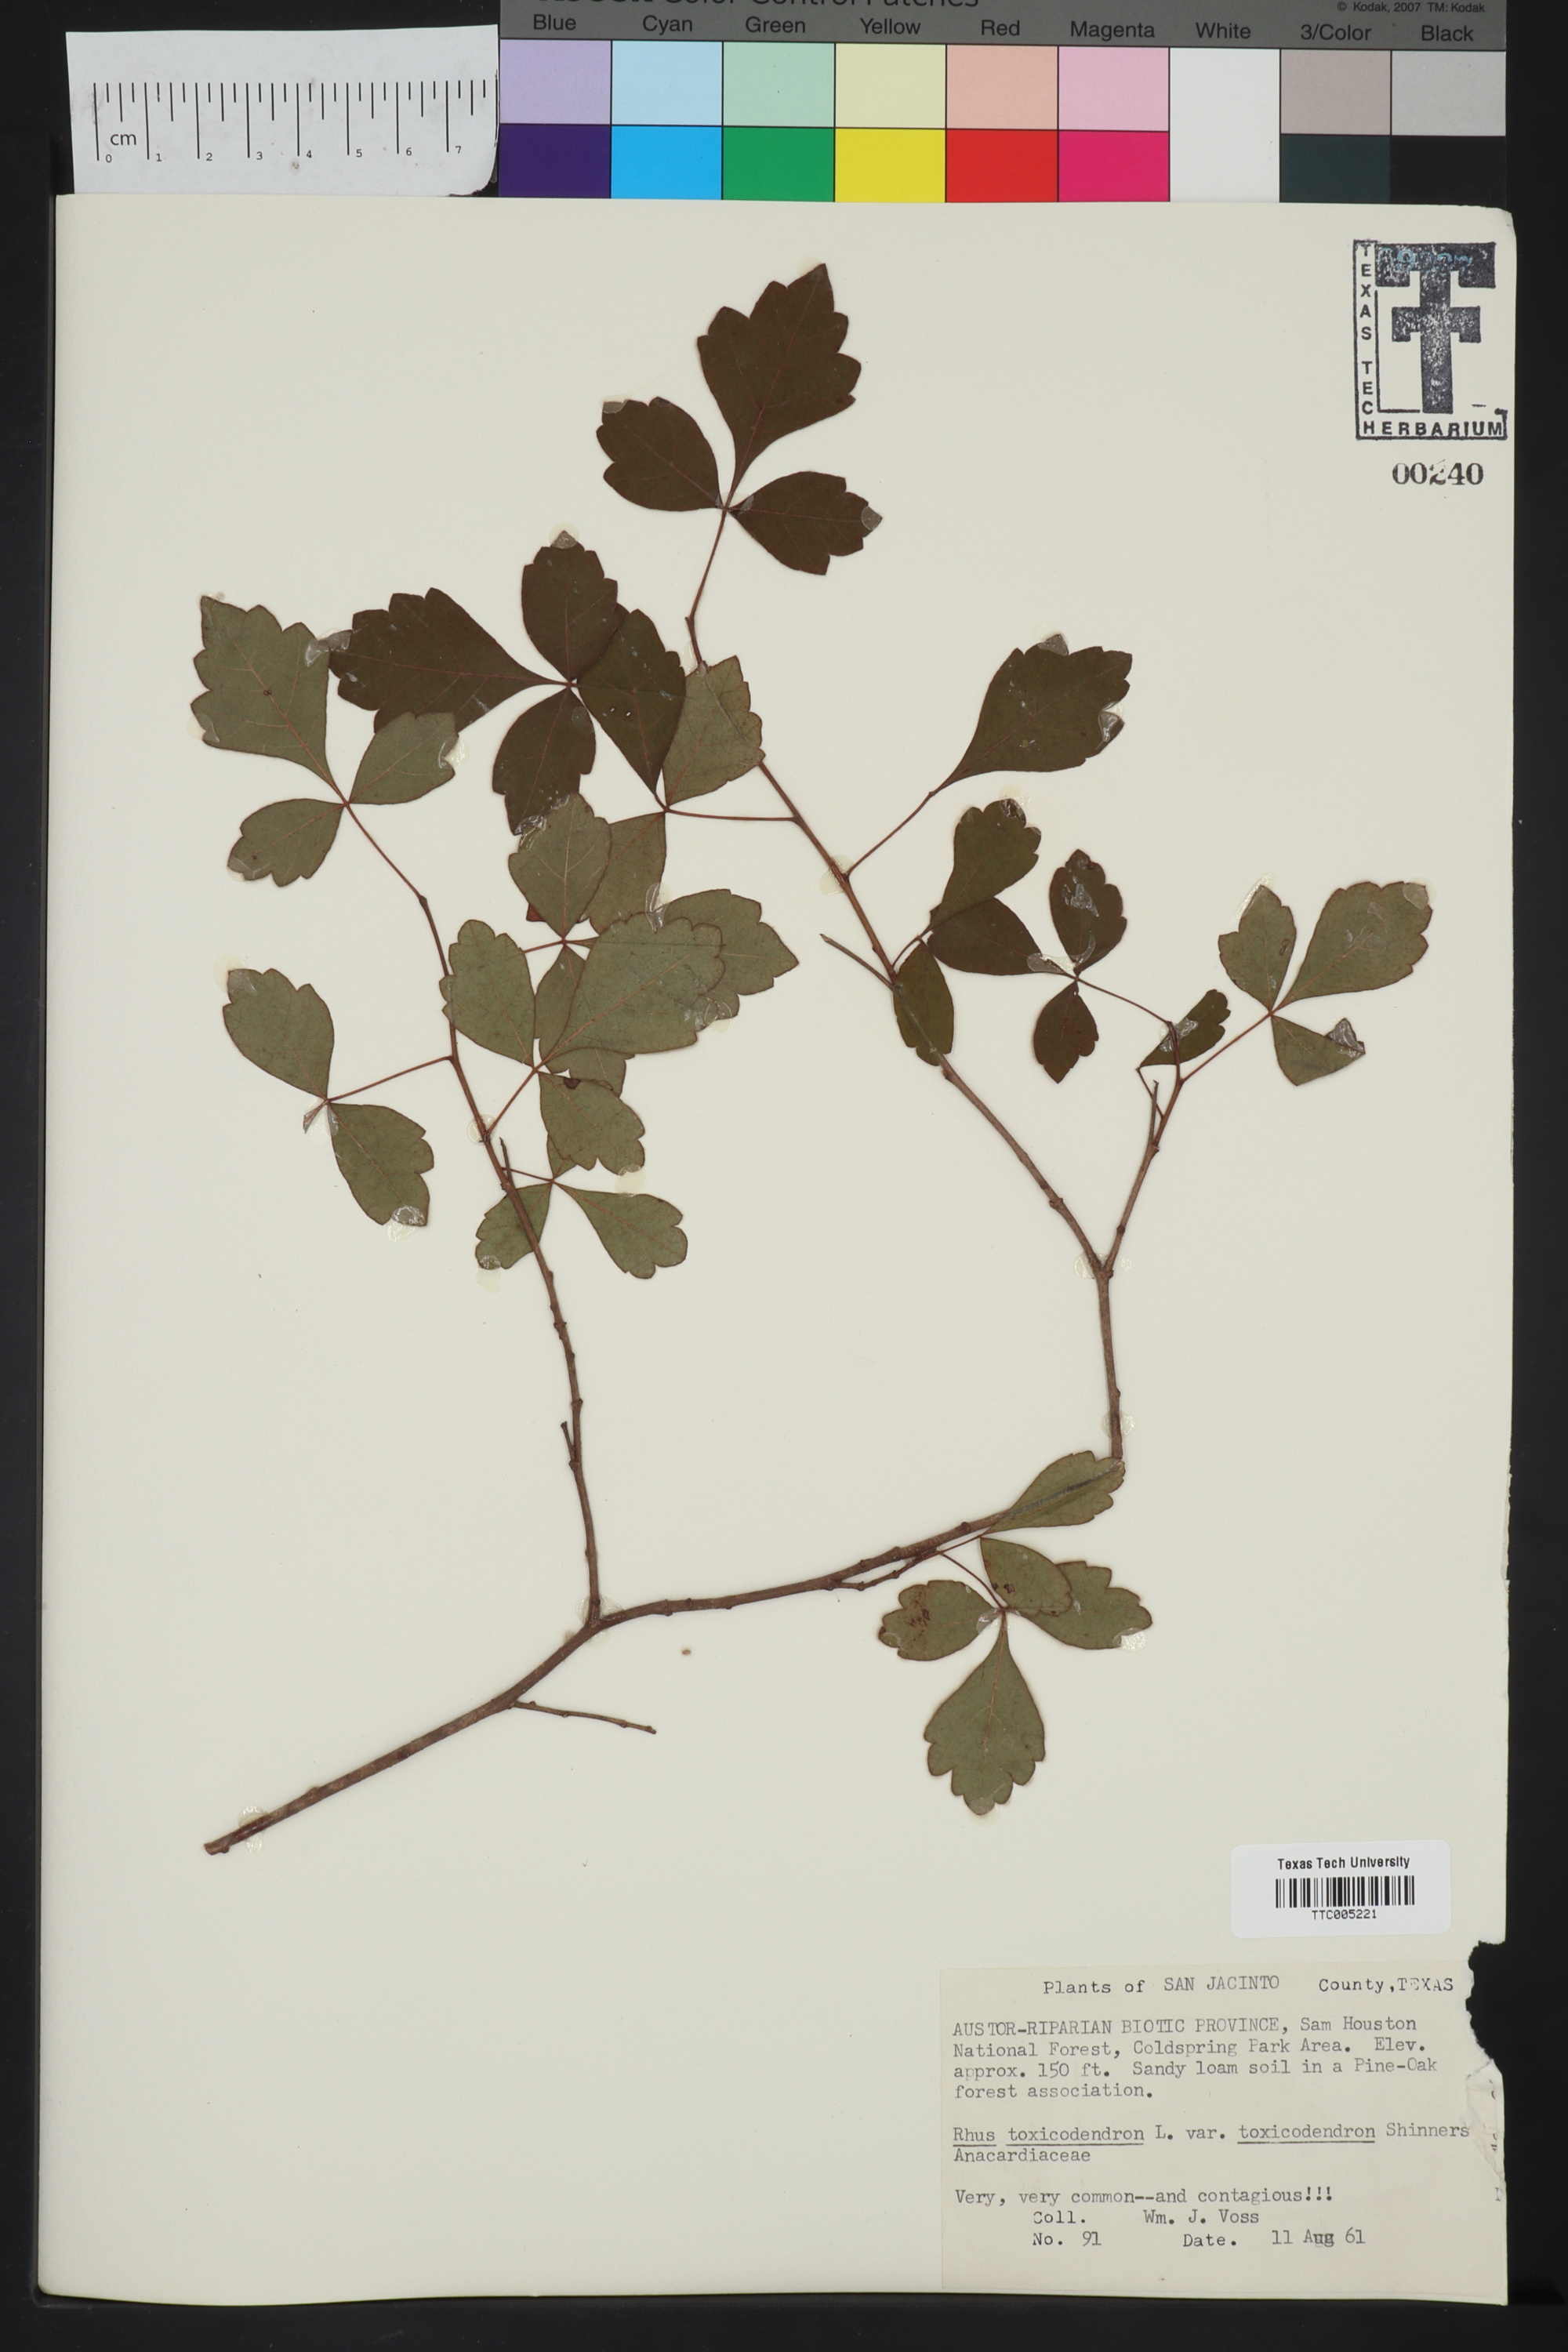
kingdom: Plantae
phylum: Tracheophyta
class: Magnoliopsida
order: Sapindales
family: Anacardiaceae
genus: Toxicodendron
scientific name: Toxicodendron
